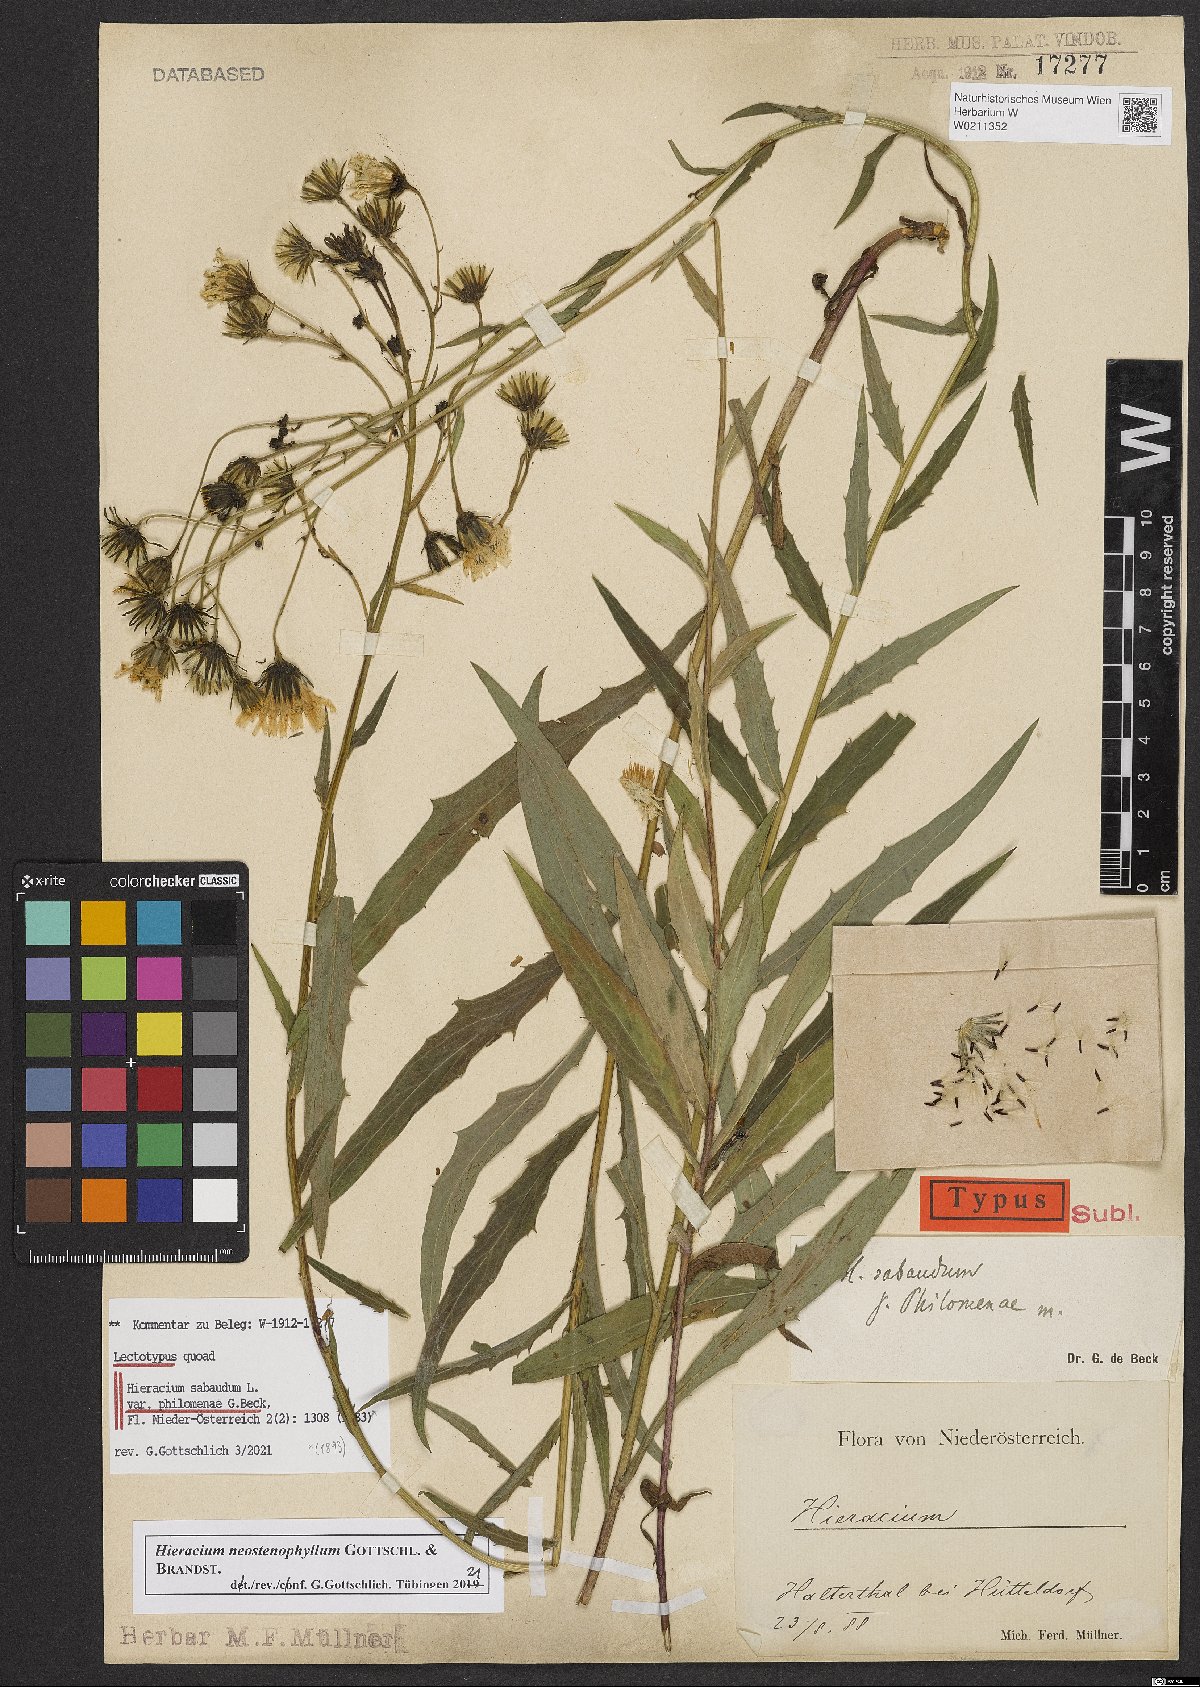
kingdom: Plantae
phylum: Tracheophyta
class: Magnoliopsida
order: Asterales
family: Asteraceae
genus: Hieracium
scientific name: Hieracium neostenophyllum
